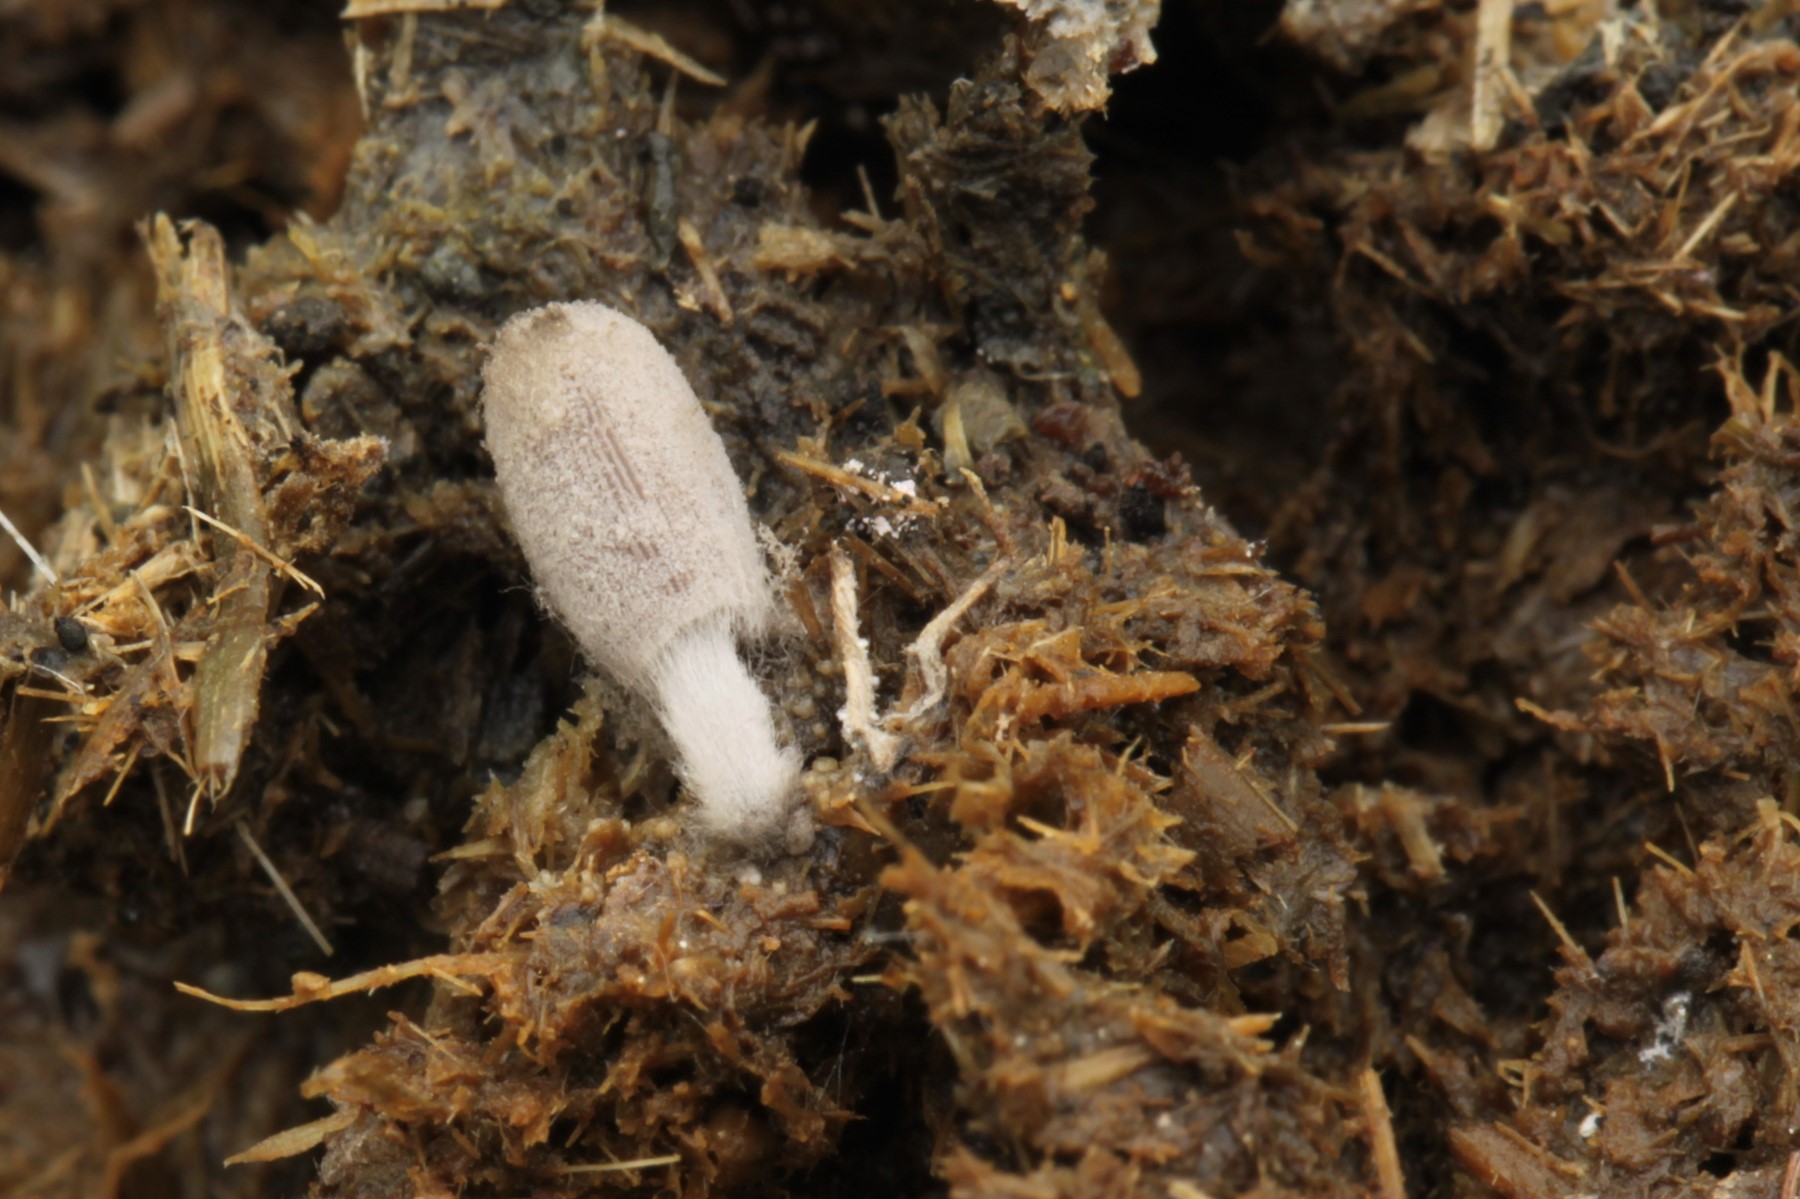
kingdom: Fungi
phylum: Basidiomycota
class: Agaricomycetes
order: Agaricales
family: Psathyrellaceae
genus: Coprinopsis
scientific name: Coprinopsis stercorea
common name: pjusket blækhat
